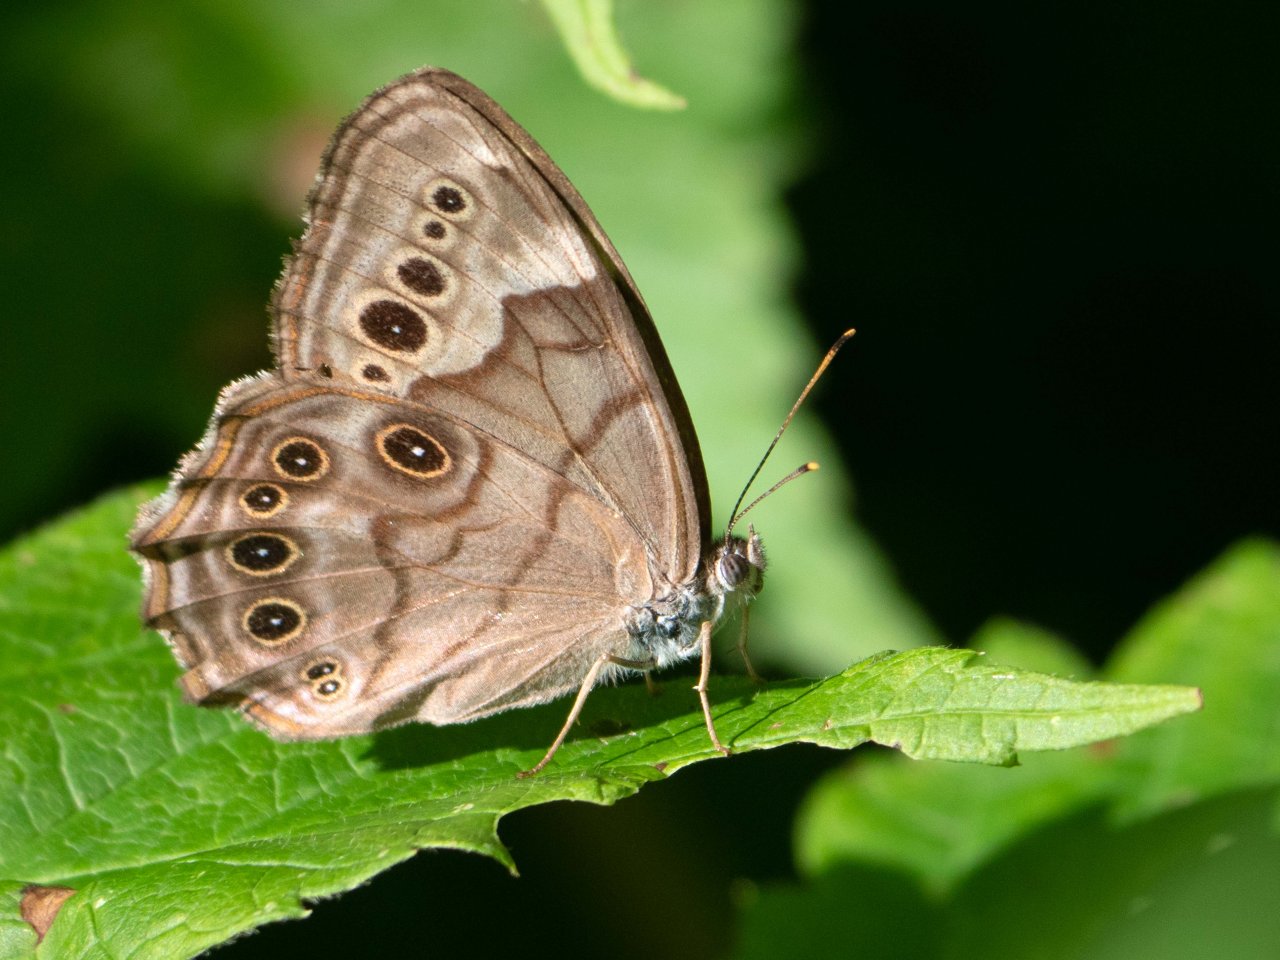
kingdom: Animalia
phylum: Arthropoda
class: Insecta
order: Lepidoptera
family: Nymphalidae
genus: Lethe
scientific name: Lethe anthedon
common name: Northern Pearly-Eye
